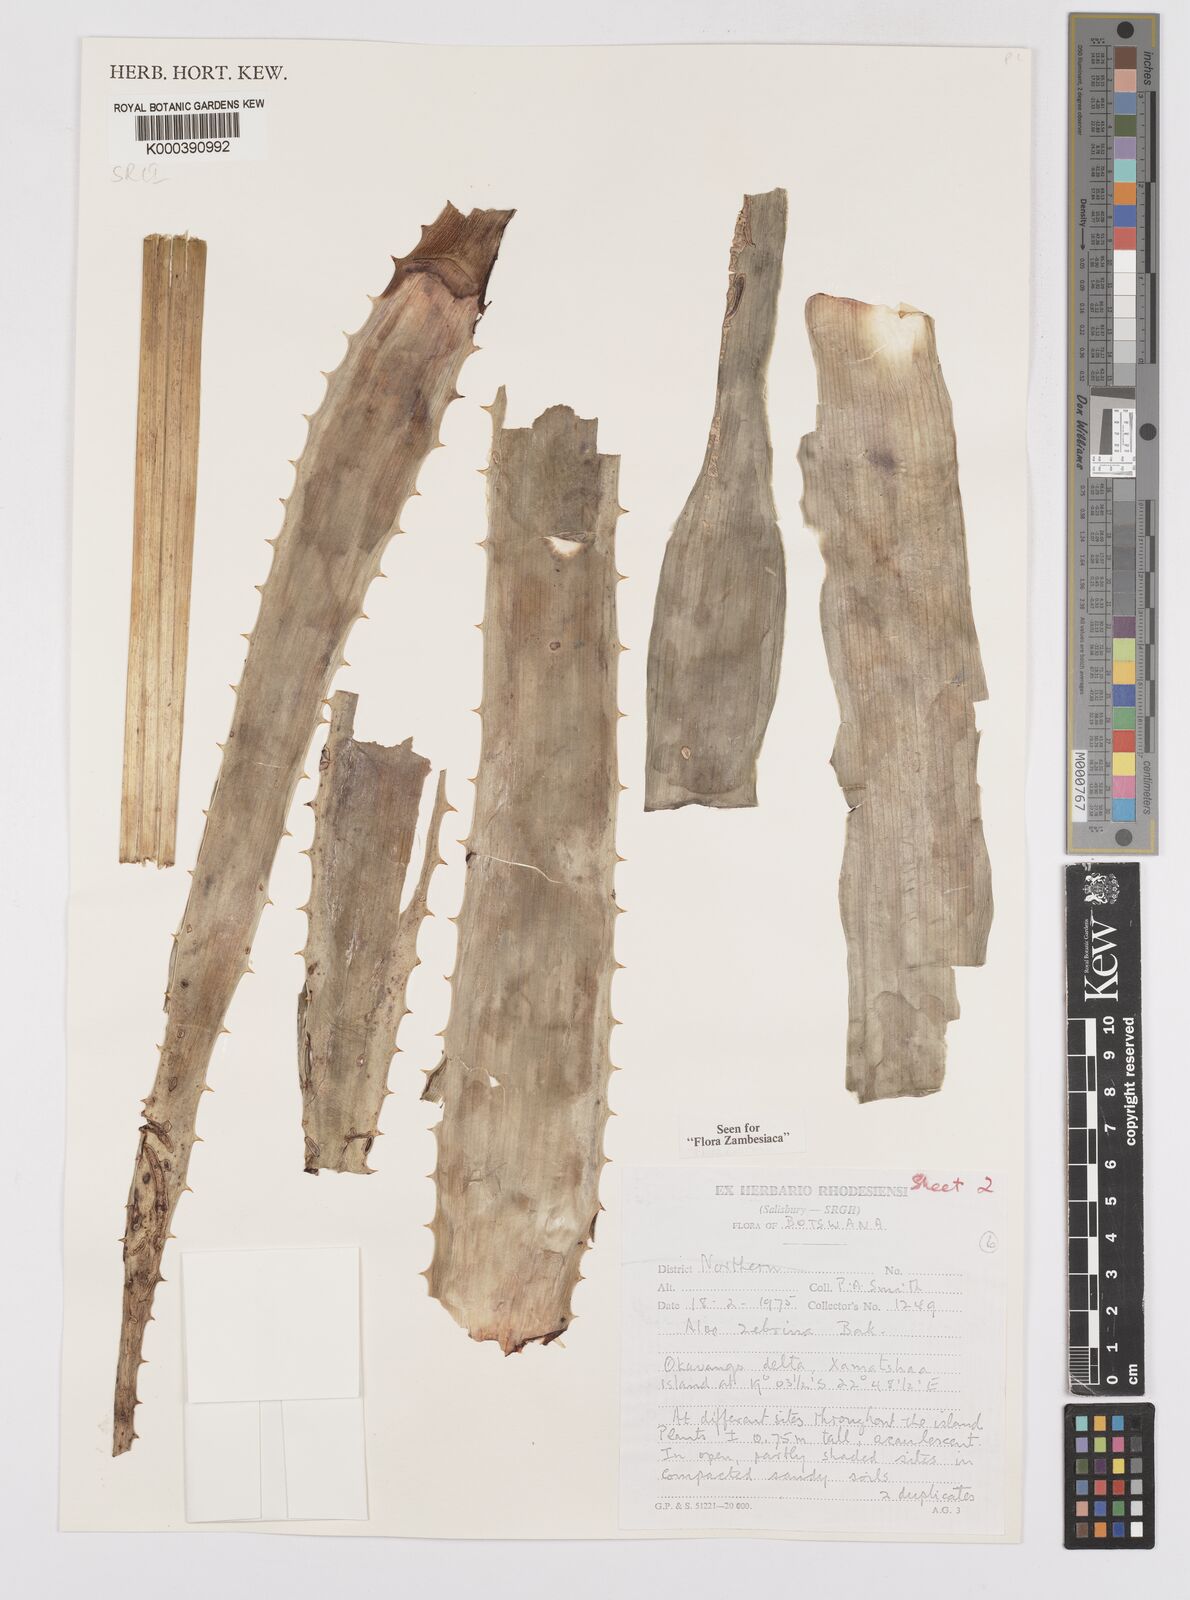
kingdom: Plantae
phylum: Tracheophyta
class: Liliopsida
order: Asparagales
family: Asphodelaceae
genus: Aloe
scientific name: Aloe zebrina
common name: Zebra-leaf aloe
